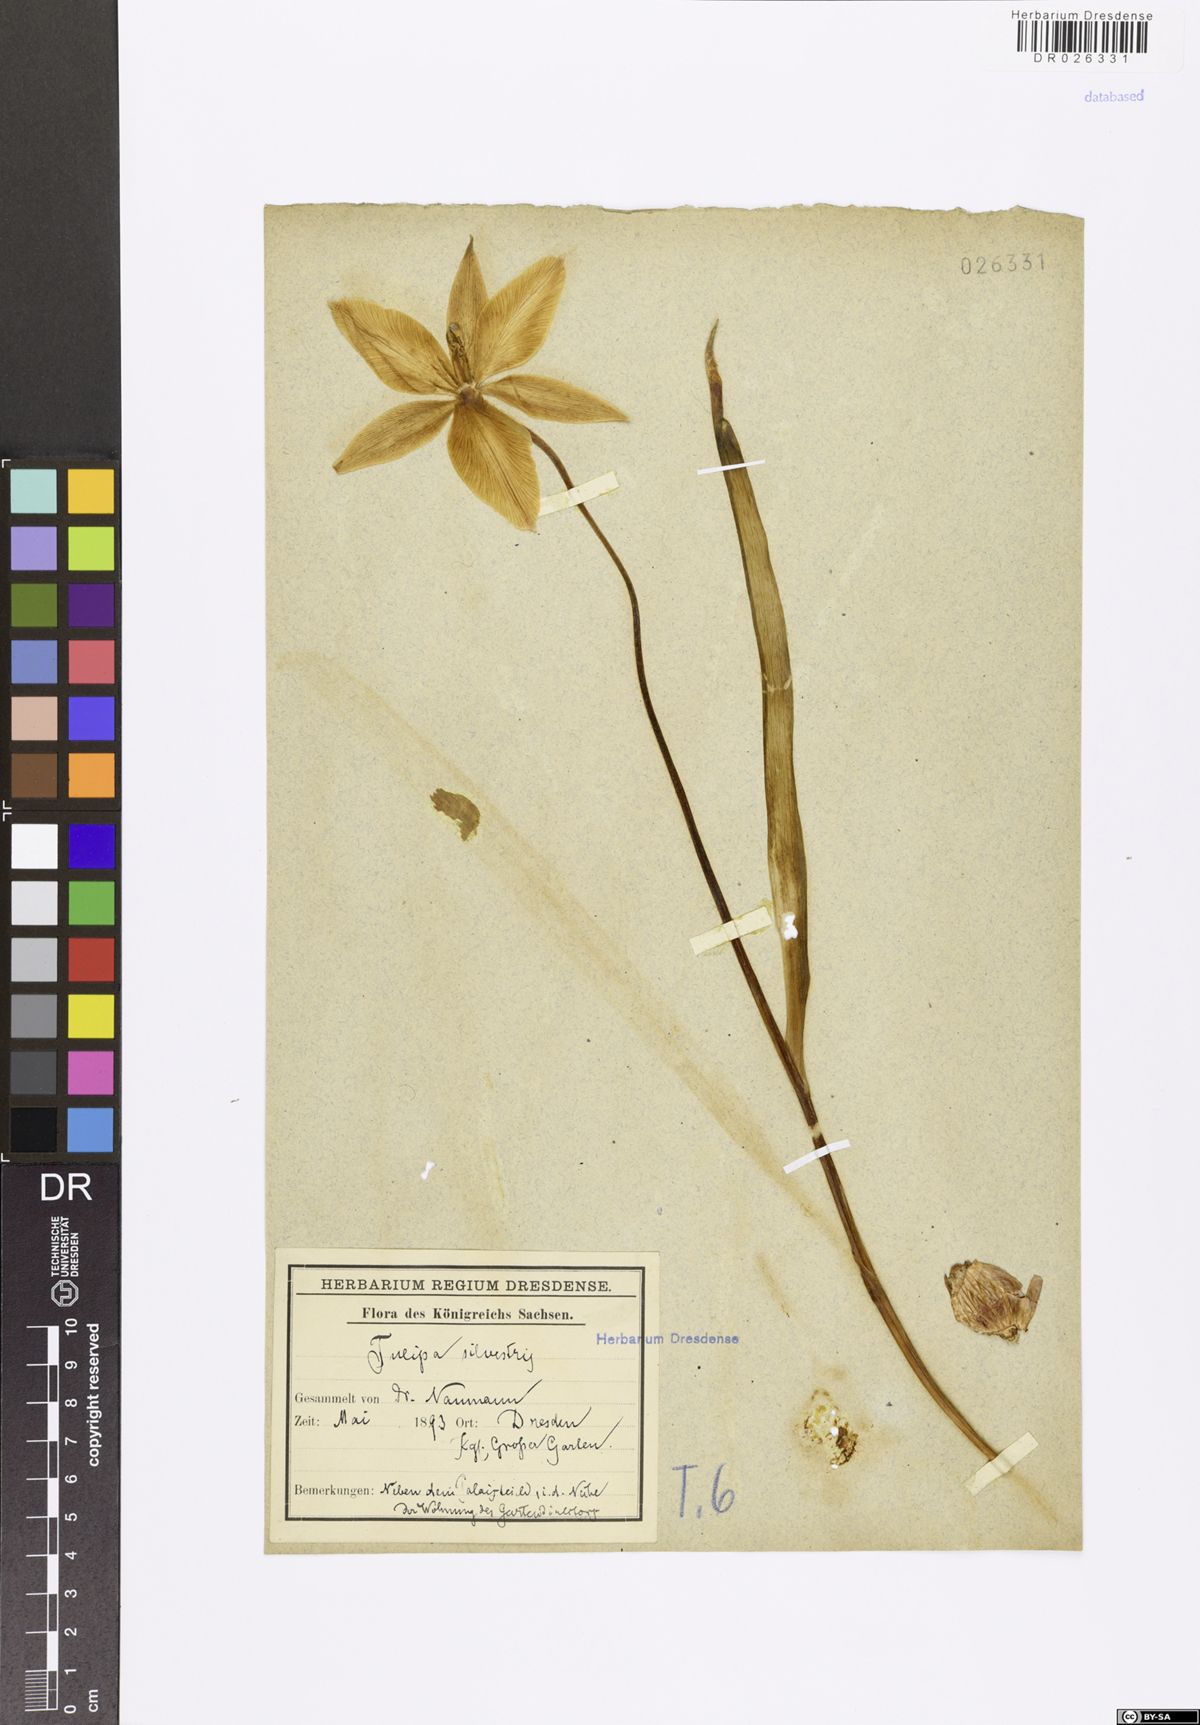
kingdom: Plantae
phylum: Tracheophyta
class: Liliopsida
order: Liliales
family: Liliaceae
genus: Tulipa
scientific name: Tulipa sylvestris
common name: Wild tulip
